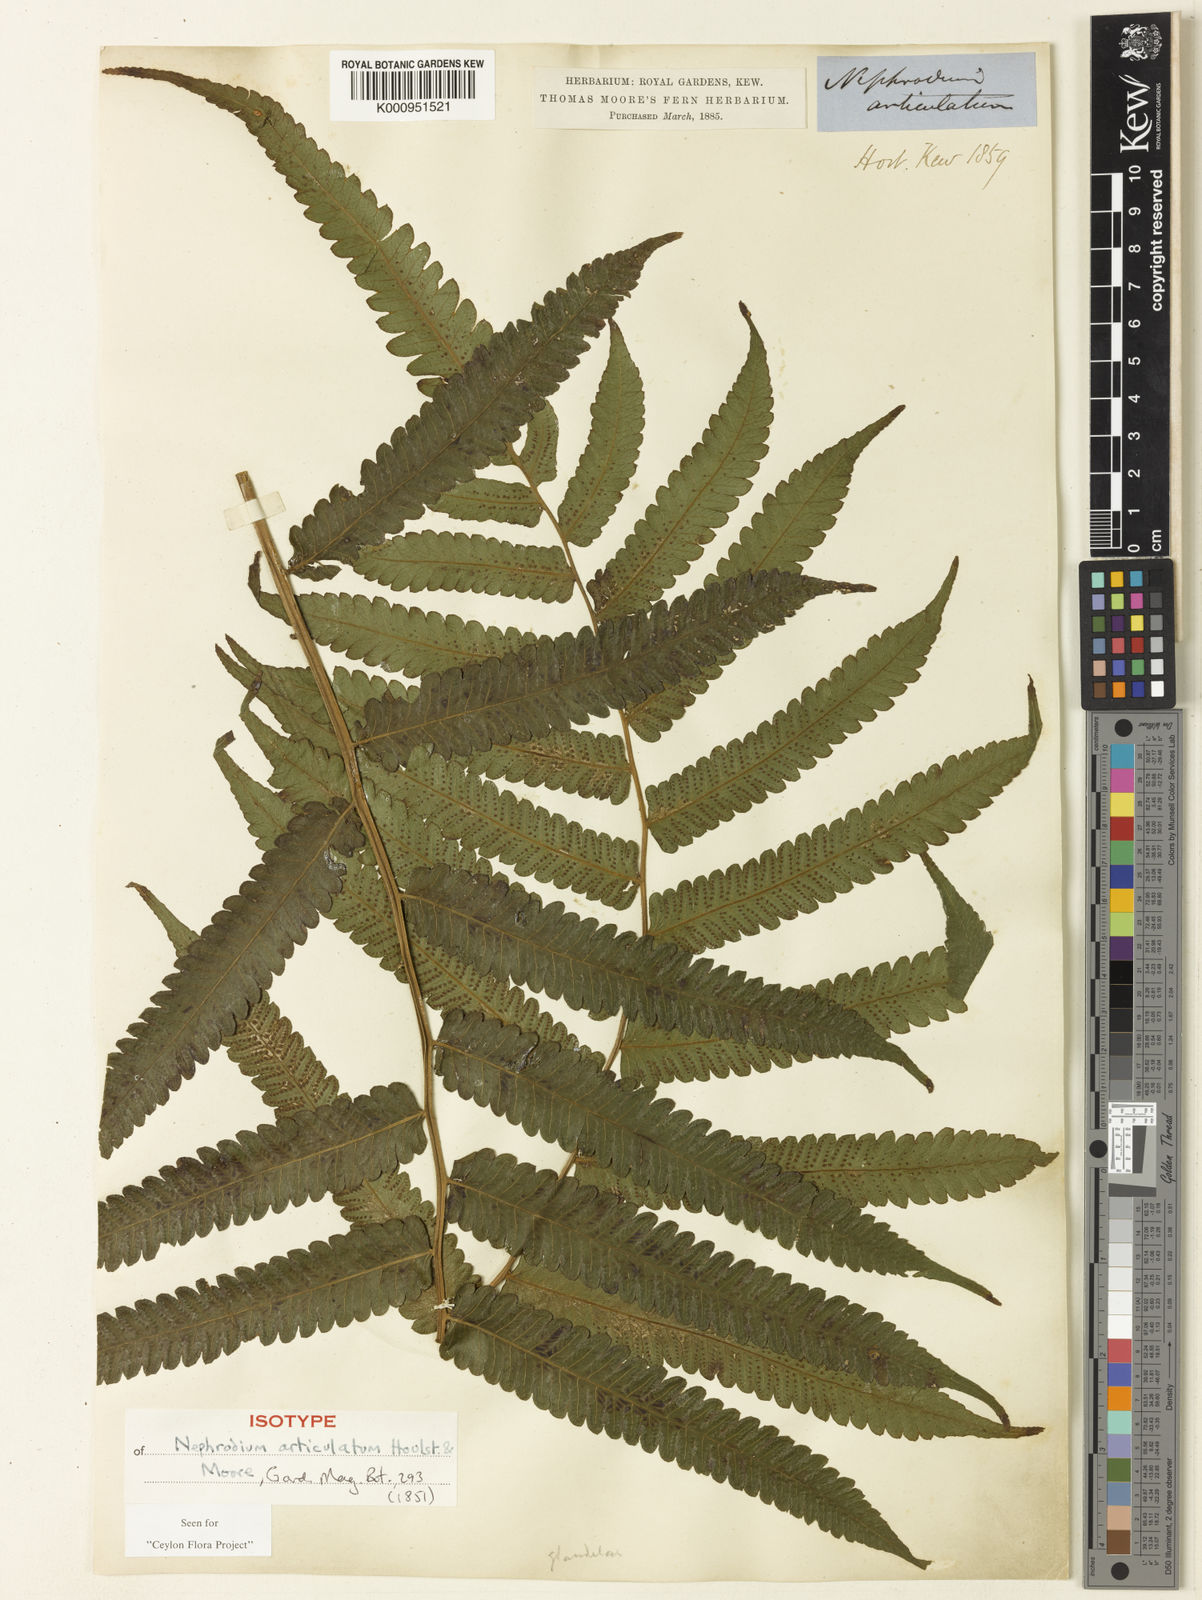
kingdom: Plantae
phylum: Tracheophyta
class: Polypodiopsida
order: Polypodiales
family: Thelypteridaceae
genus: Christella
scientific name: Christella euphlebia
